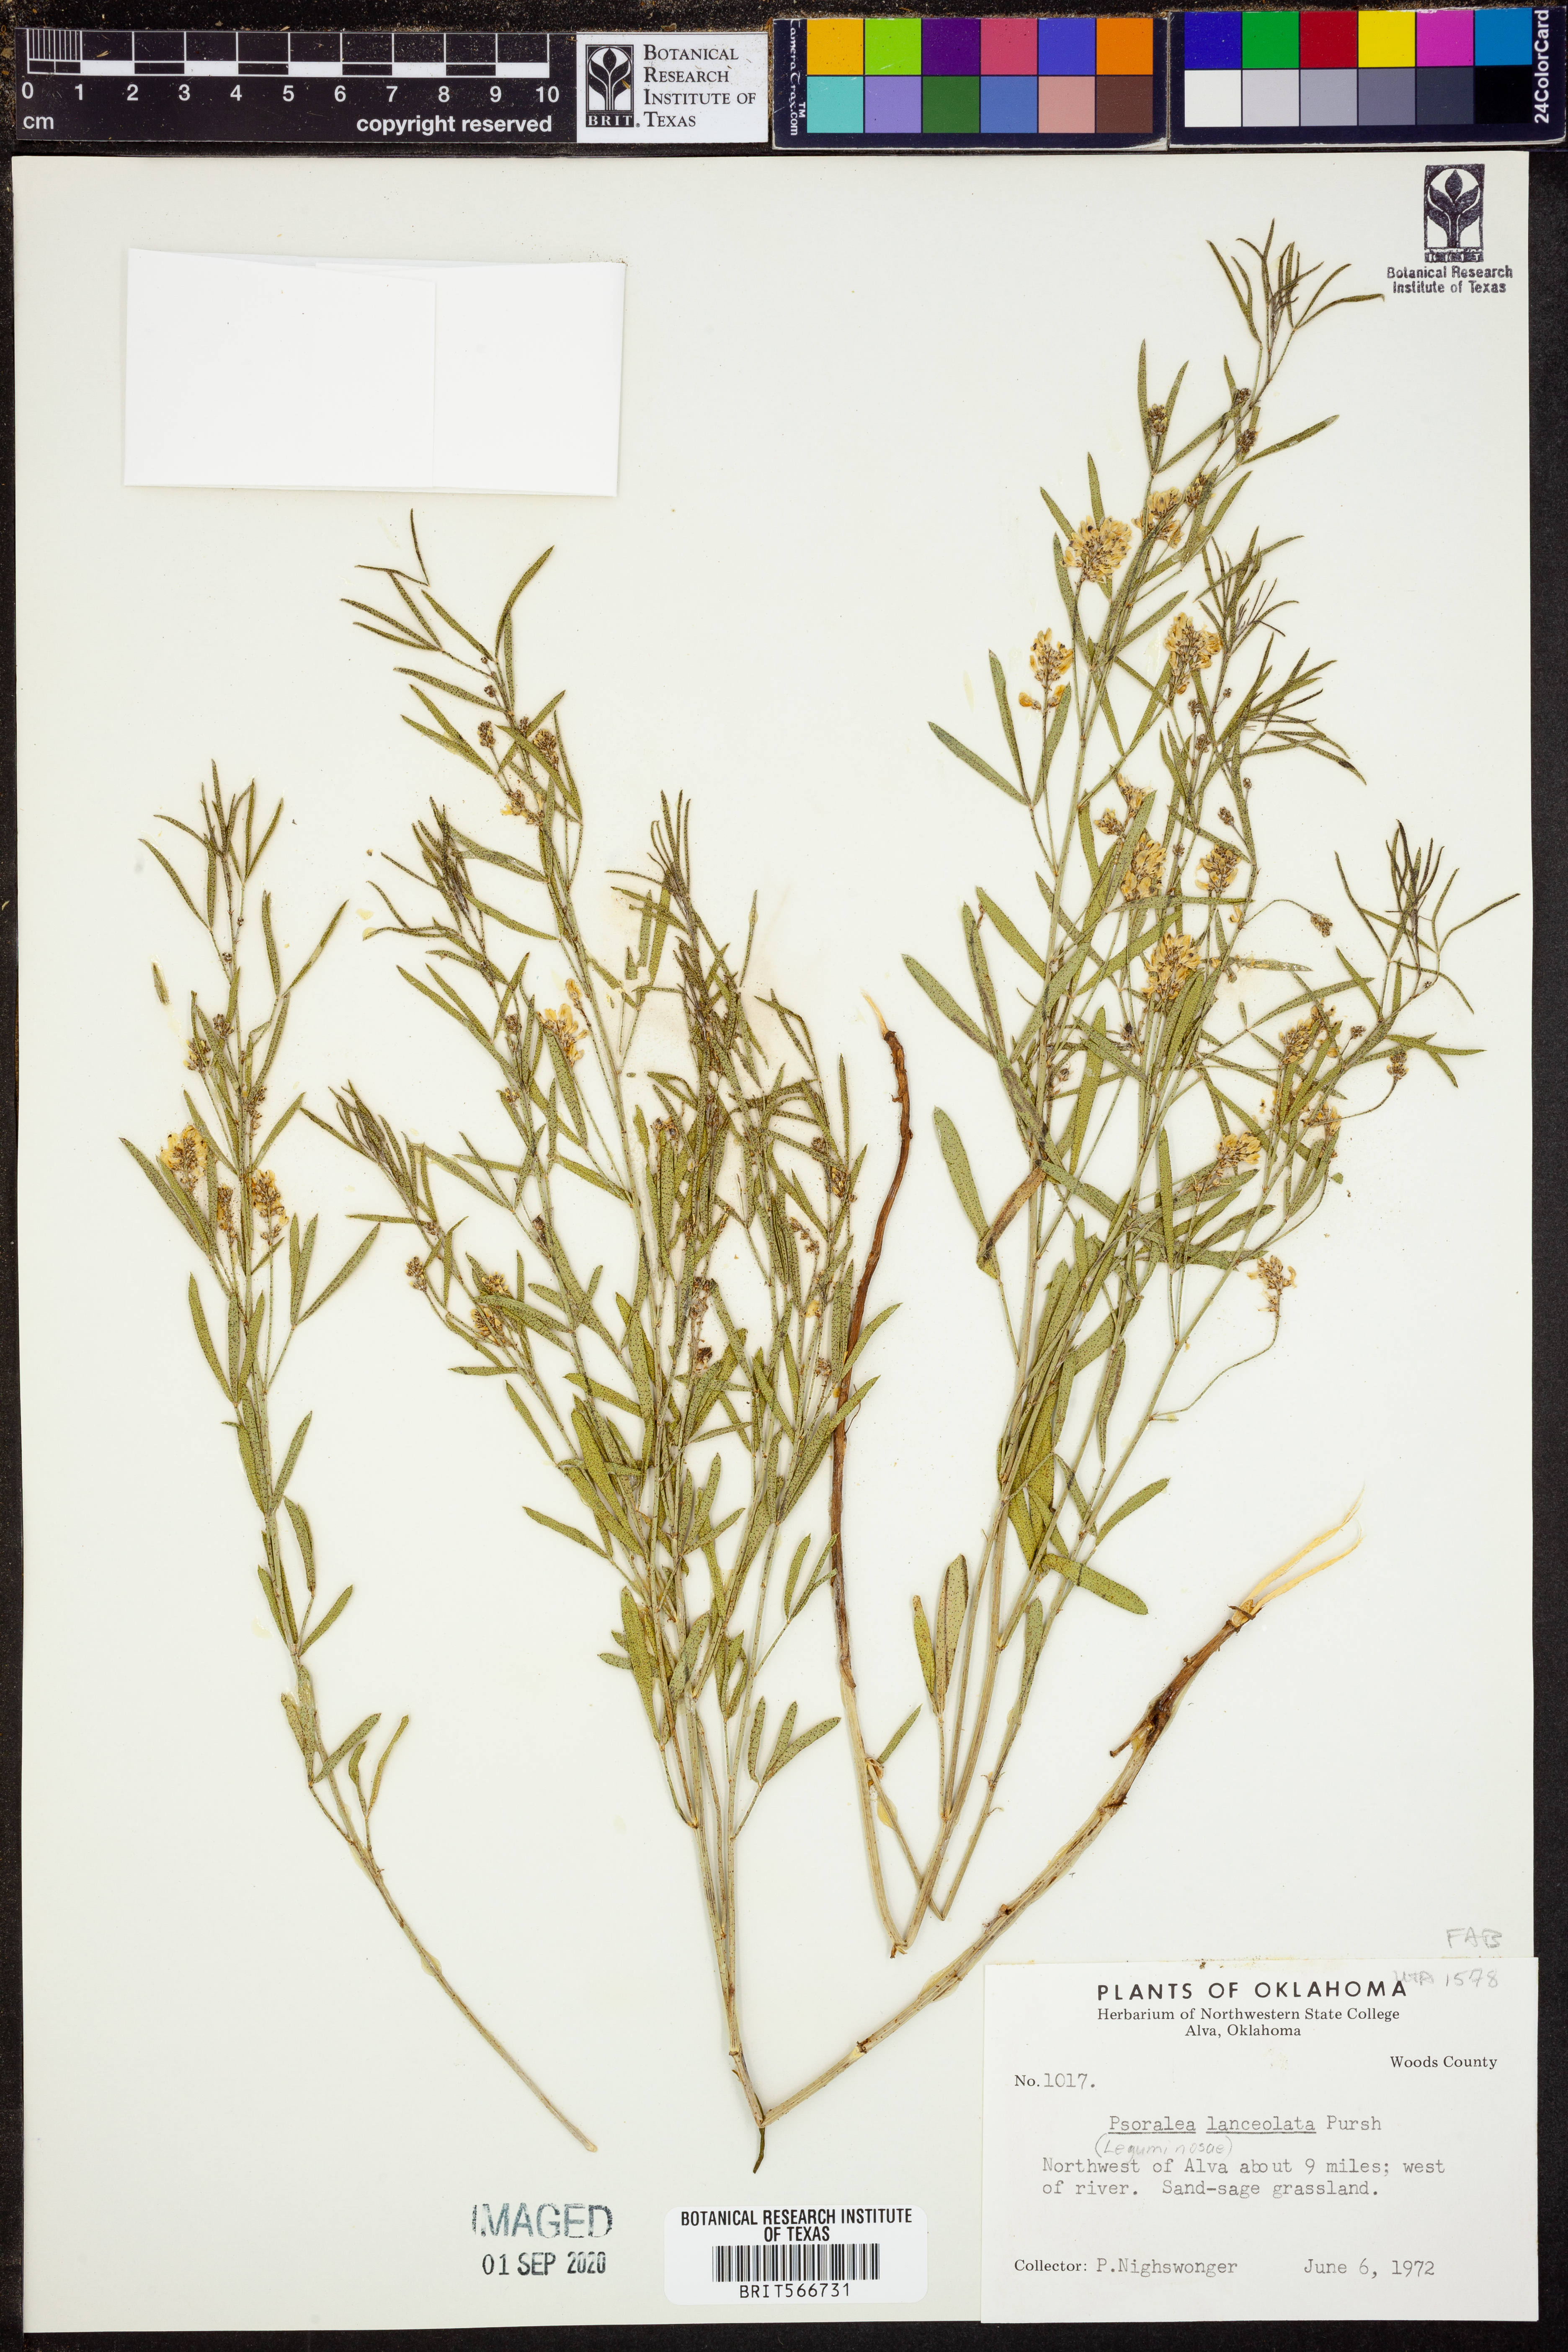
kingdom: Plantae
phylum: Tracheophyta
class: Magnoliopsida
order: Fabales
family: Fabaceae
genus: Ladeania
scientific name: Ladeania lanceolata
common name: Dune scurf-pea
